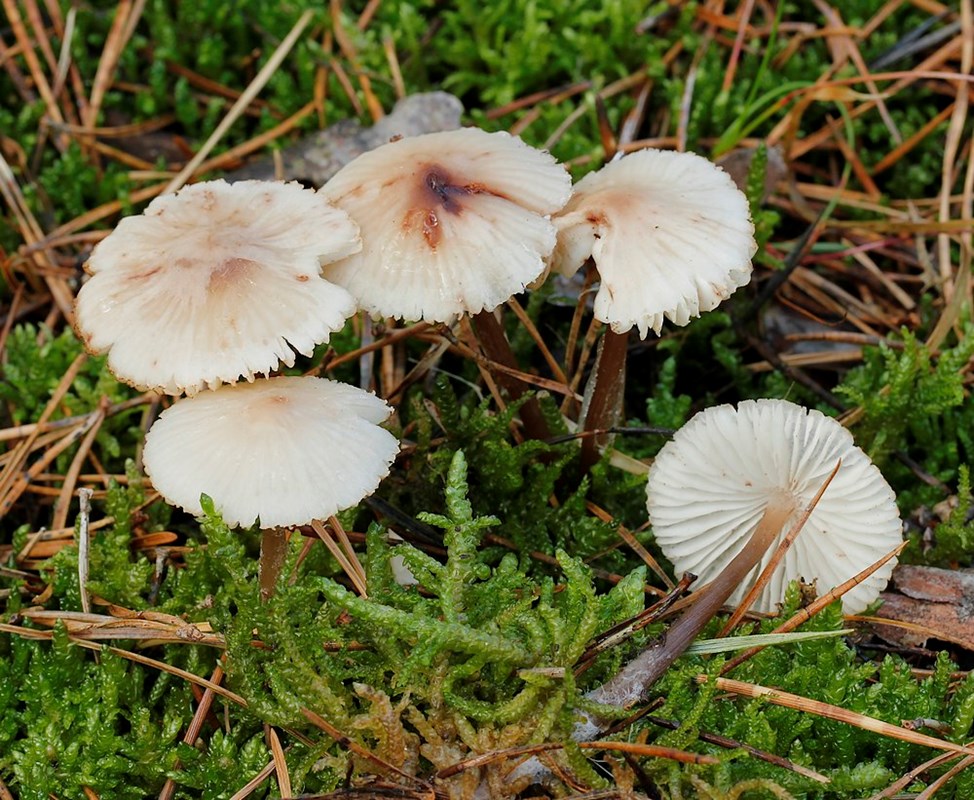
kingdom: Fungi
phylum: Basidiomycota
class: Agaricomycetes
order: Agaricales
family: Mycenaceae
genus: Mycena
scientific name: Mycena zephirus
